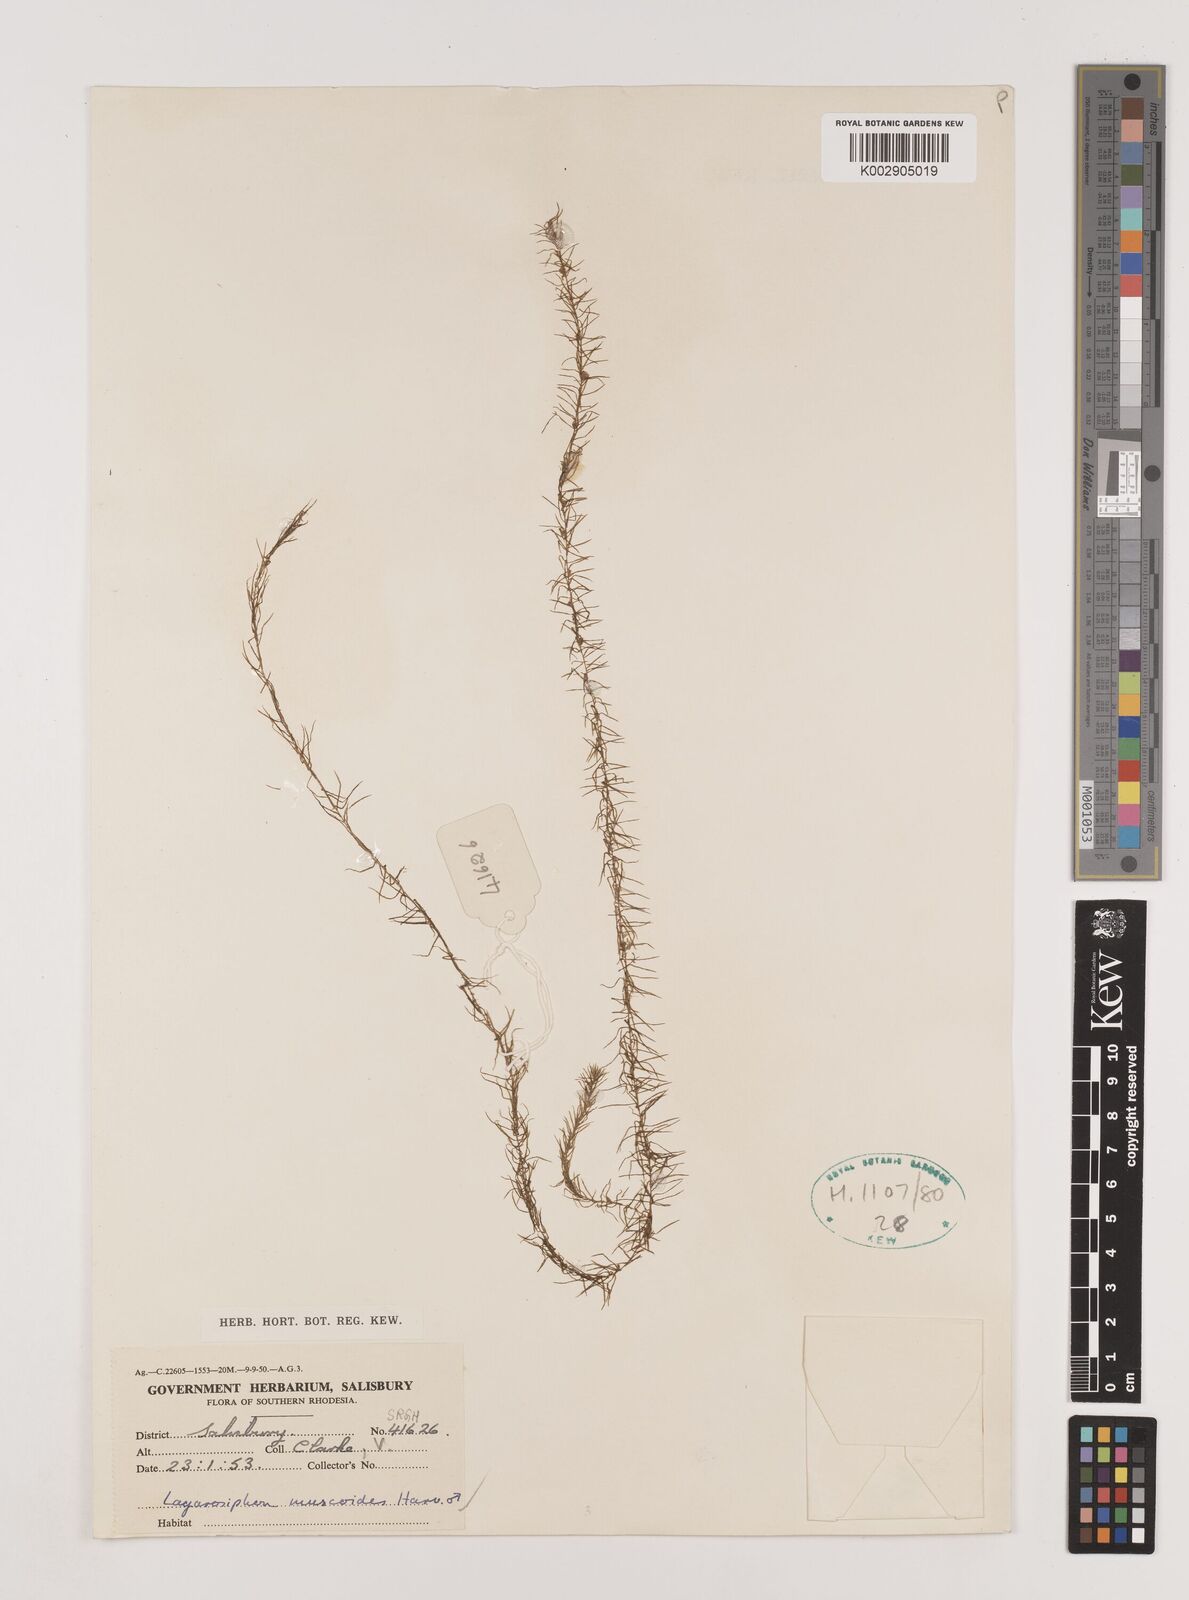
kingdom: Plantae
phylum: Tracheophyta
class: Liliopsida
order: Alismatales
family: Hydrocharitaceae
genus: Lagarosiphon
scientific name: Lagarosiphon muscoides
